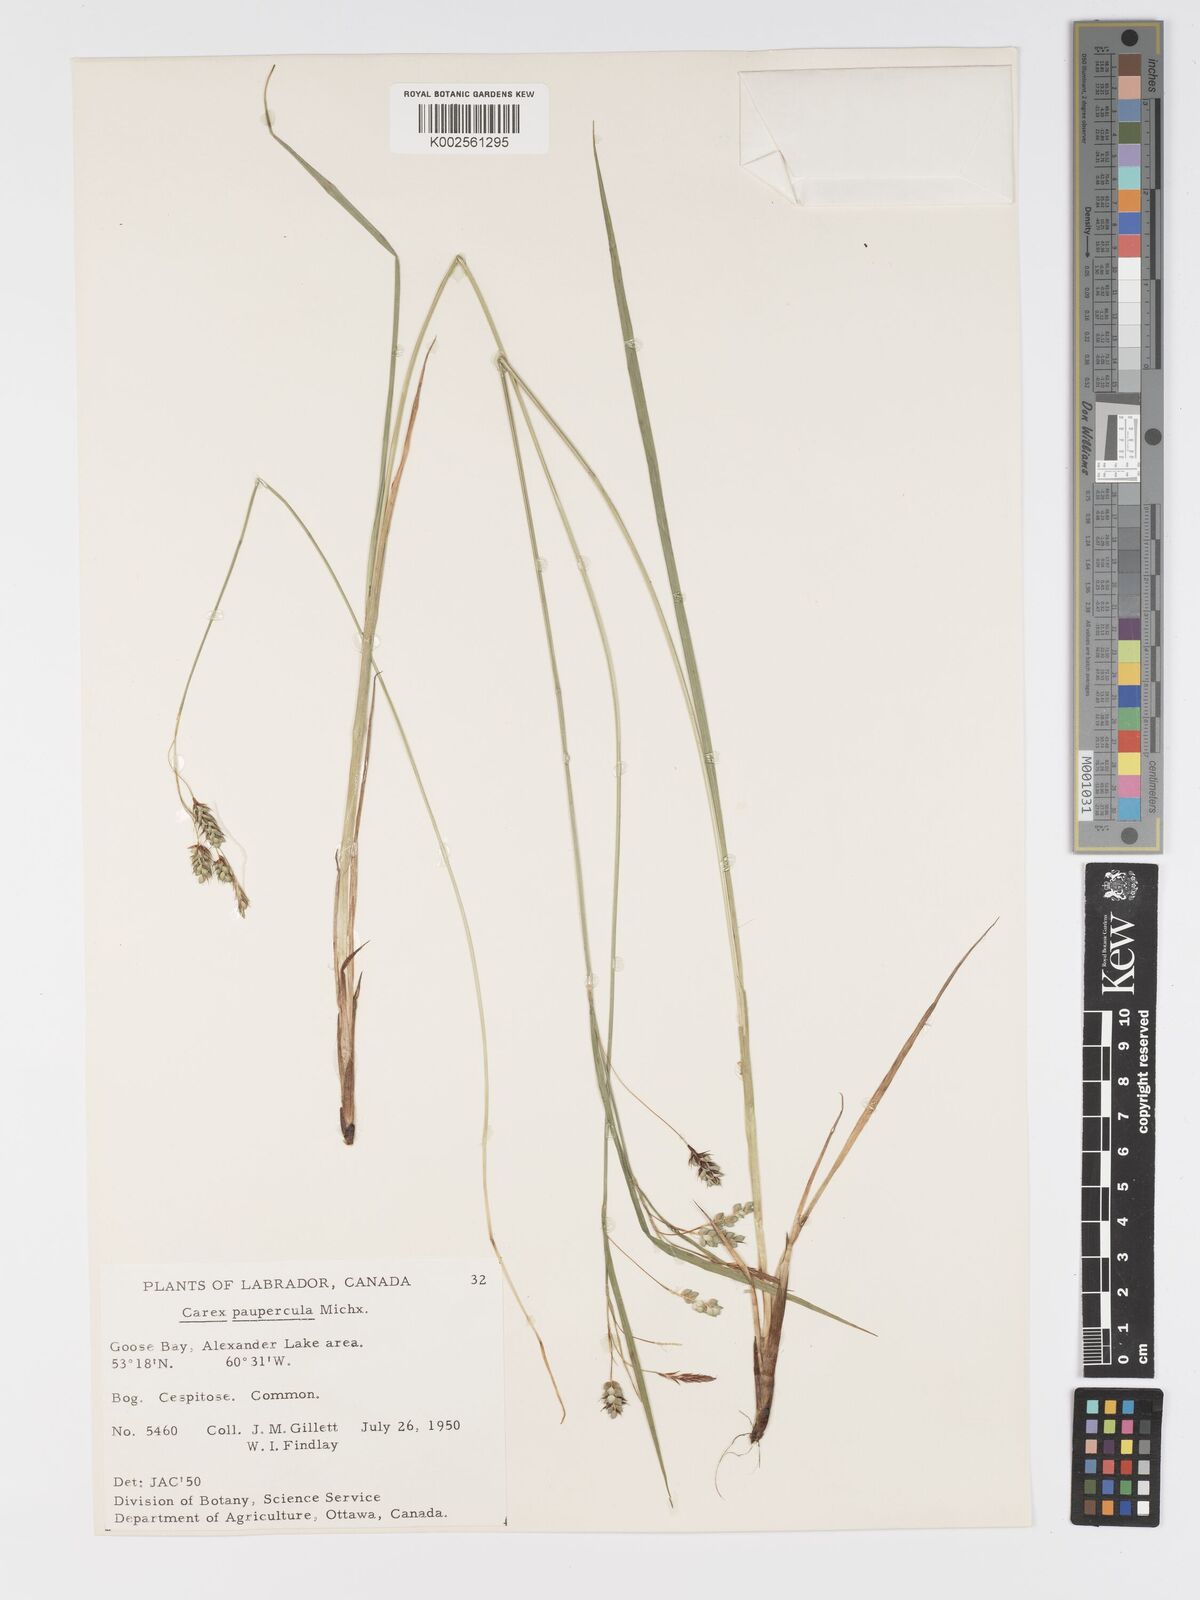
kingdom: Plantae
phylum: Tracheophyta
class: Liliopsida
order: Poales
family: Cyperaceae
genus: Carex
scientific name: Carex magellanica
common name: Bog sedge
